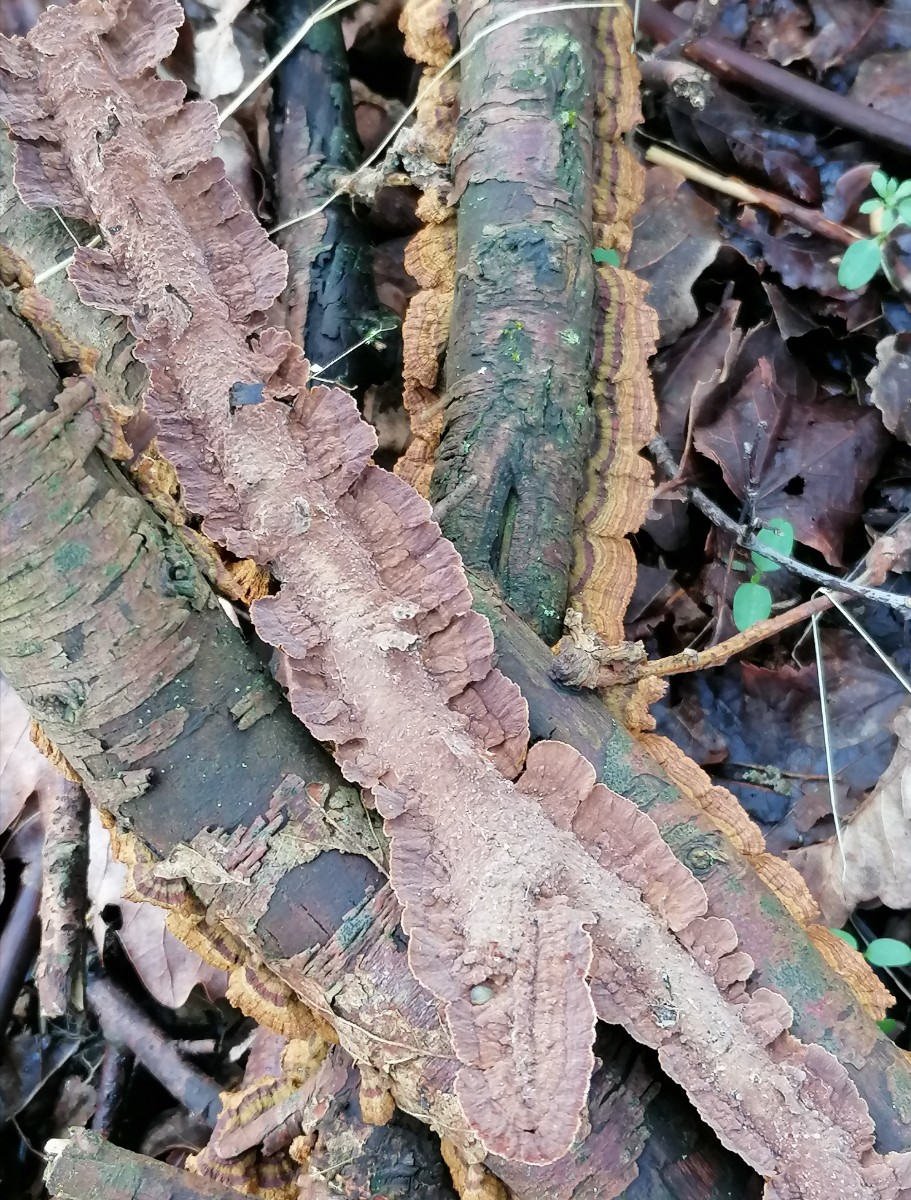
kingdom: Fungi
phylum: Basidiomycota
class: Agaricomycetes
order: Hymenochaetales
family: Hymenochaetaceae
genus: Hydnoporia
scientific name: Hydnoporia tabacina
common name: tobaksbrun ruslædersvamp
